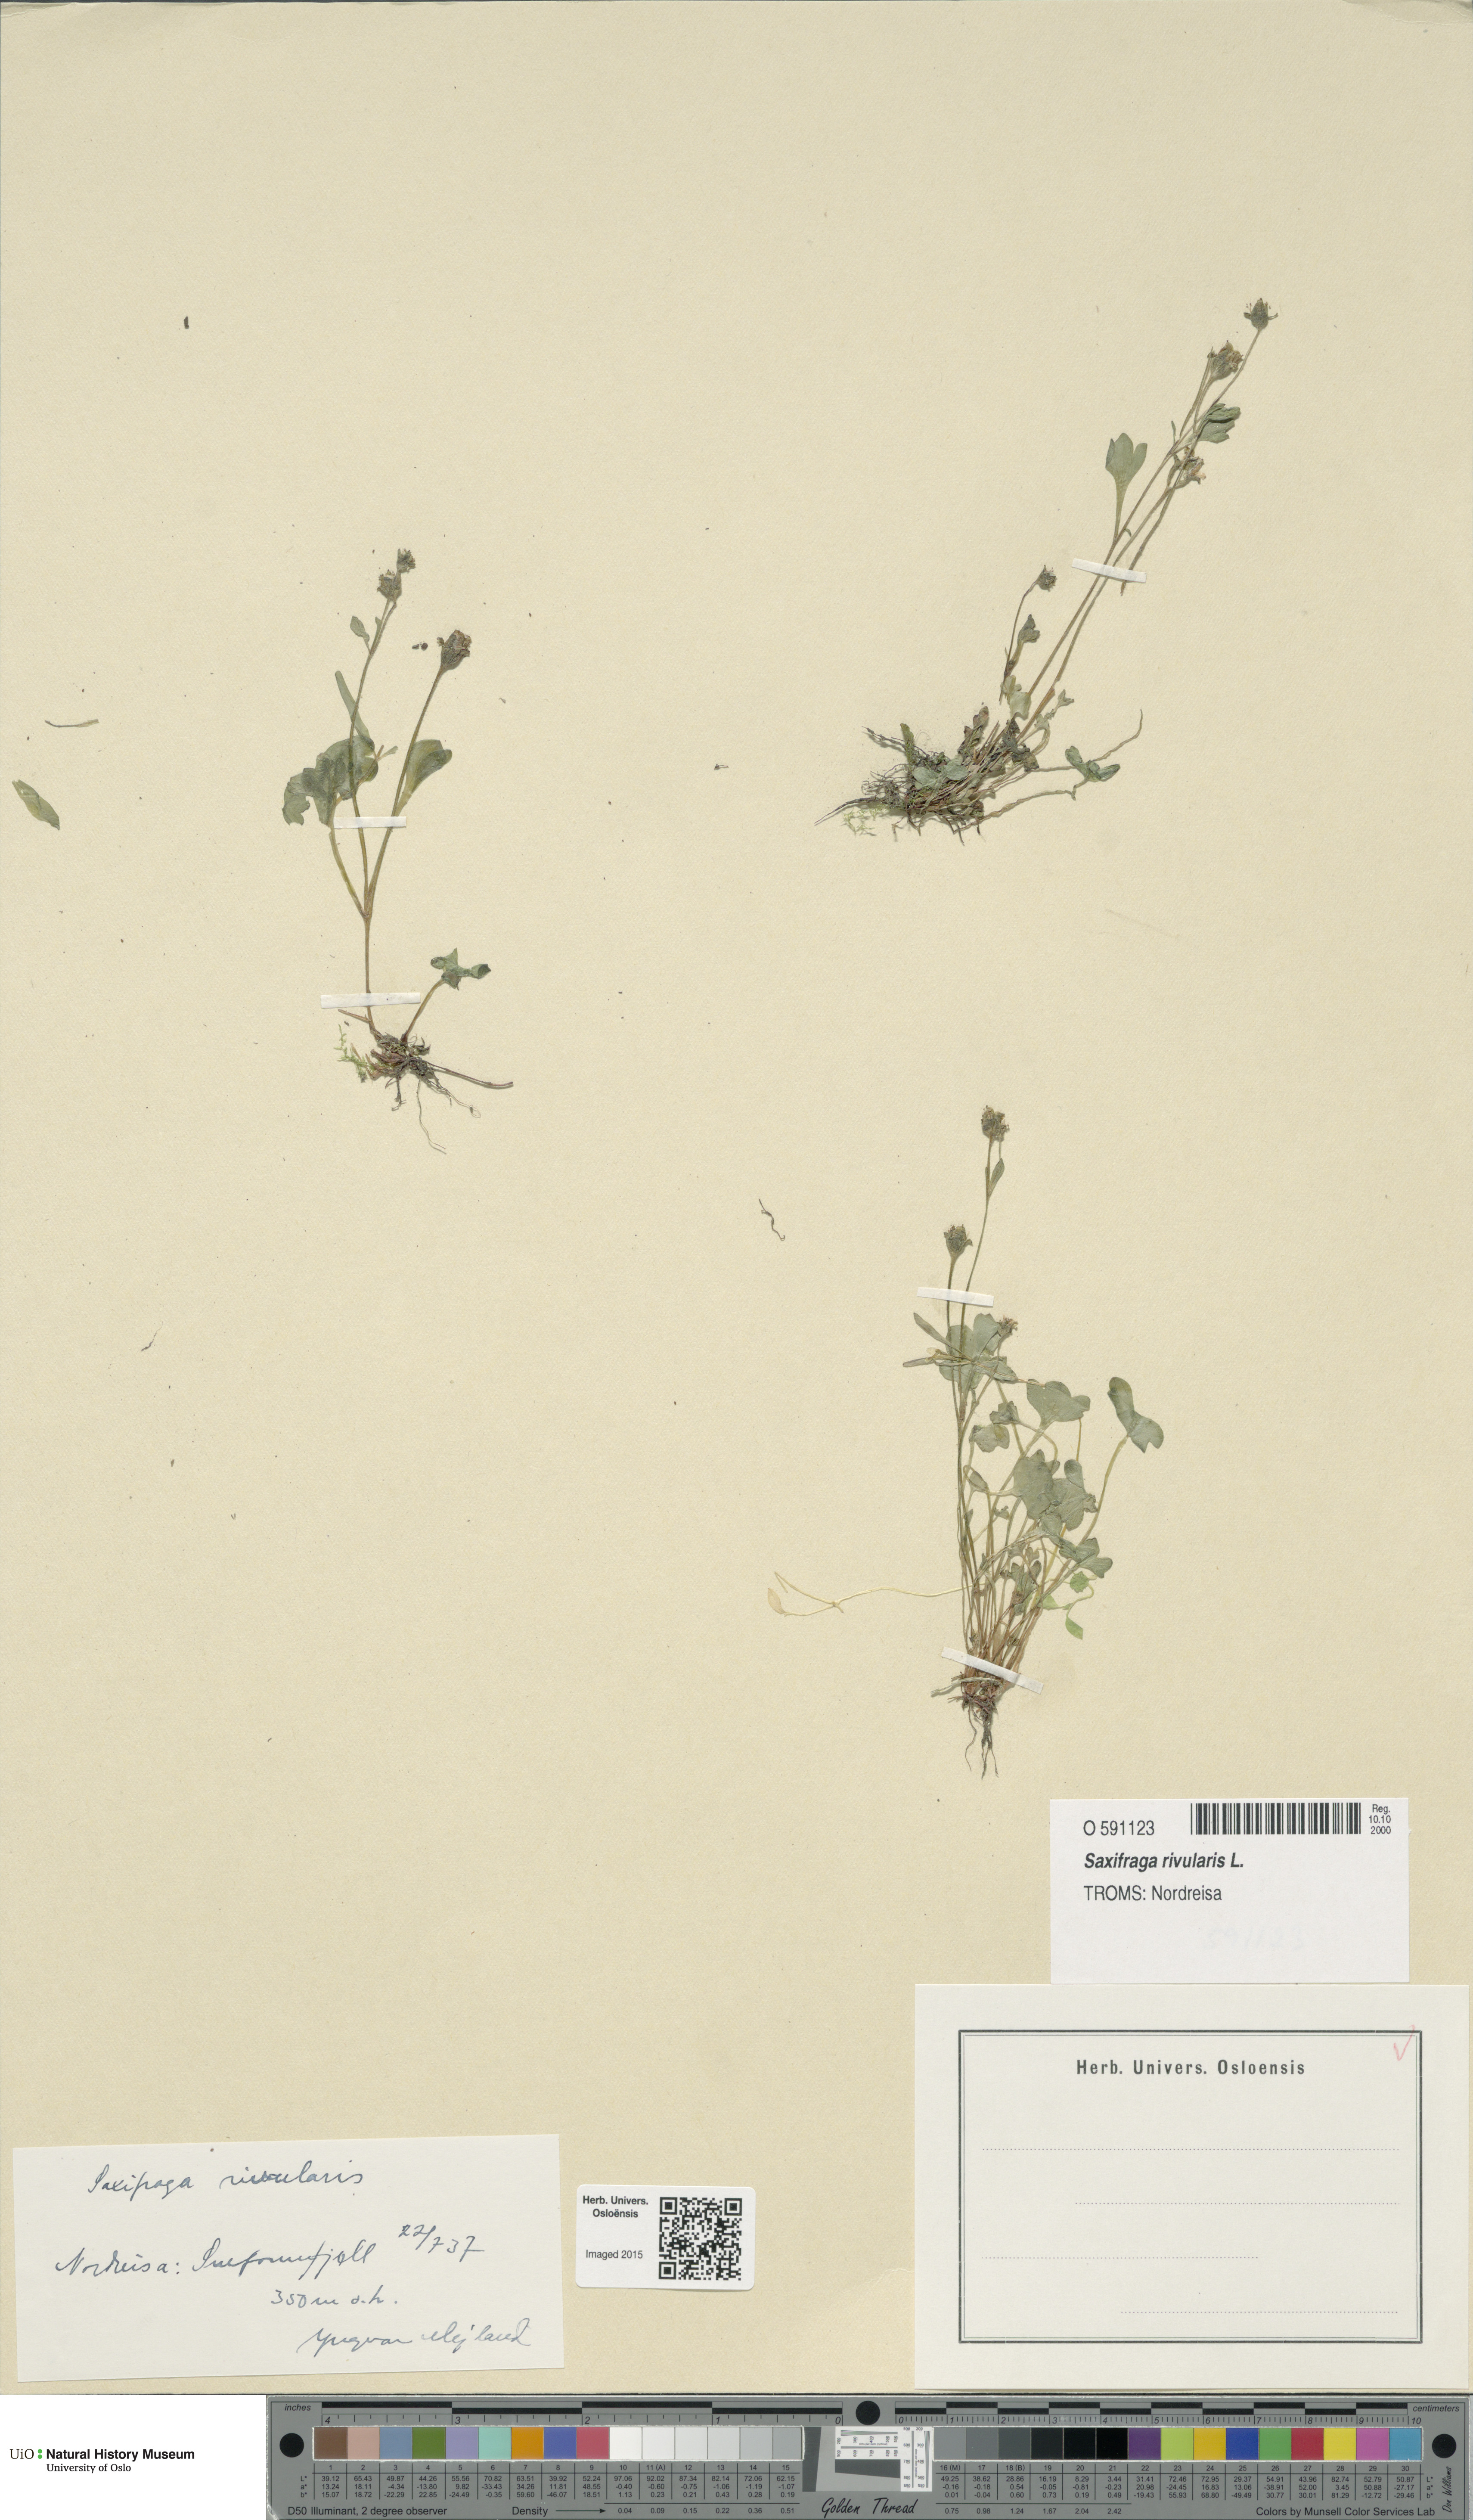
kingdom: Plantae
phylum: Tracheophyta
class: Magnoliopsida
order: Saxifragales
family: Saxifragaceae
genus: Saxifraga
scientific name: Saxifraga rivularis
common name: Highland saxifrage
